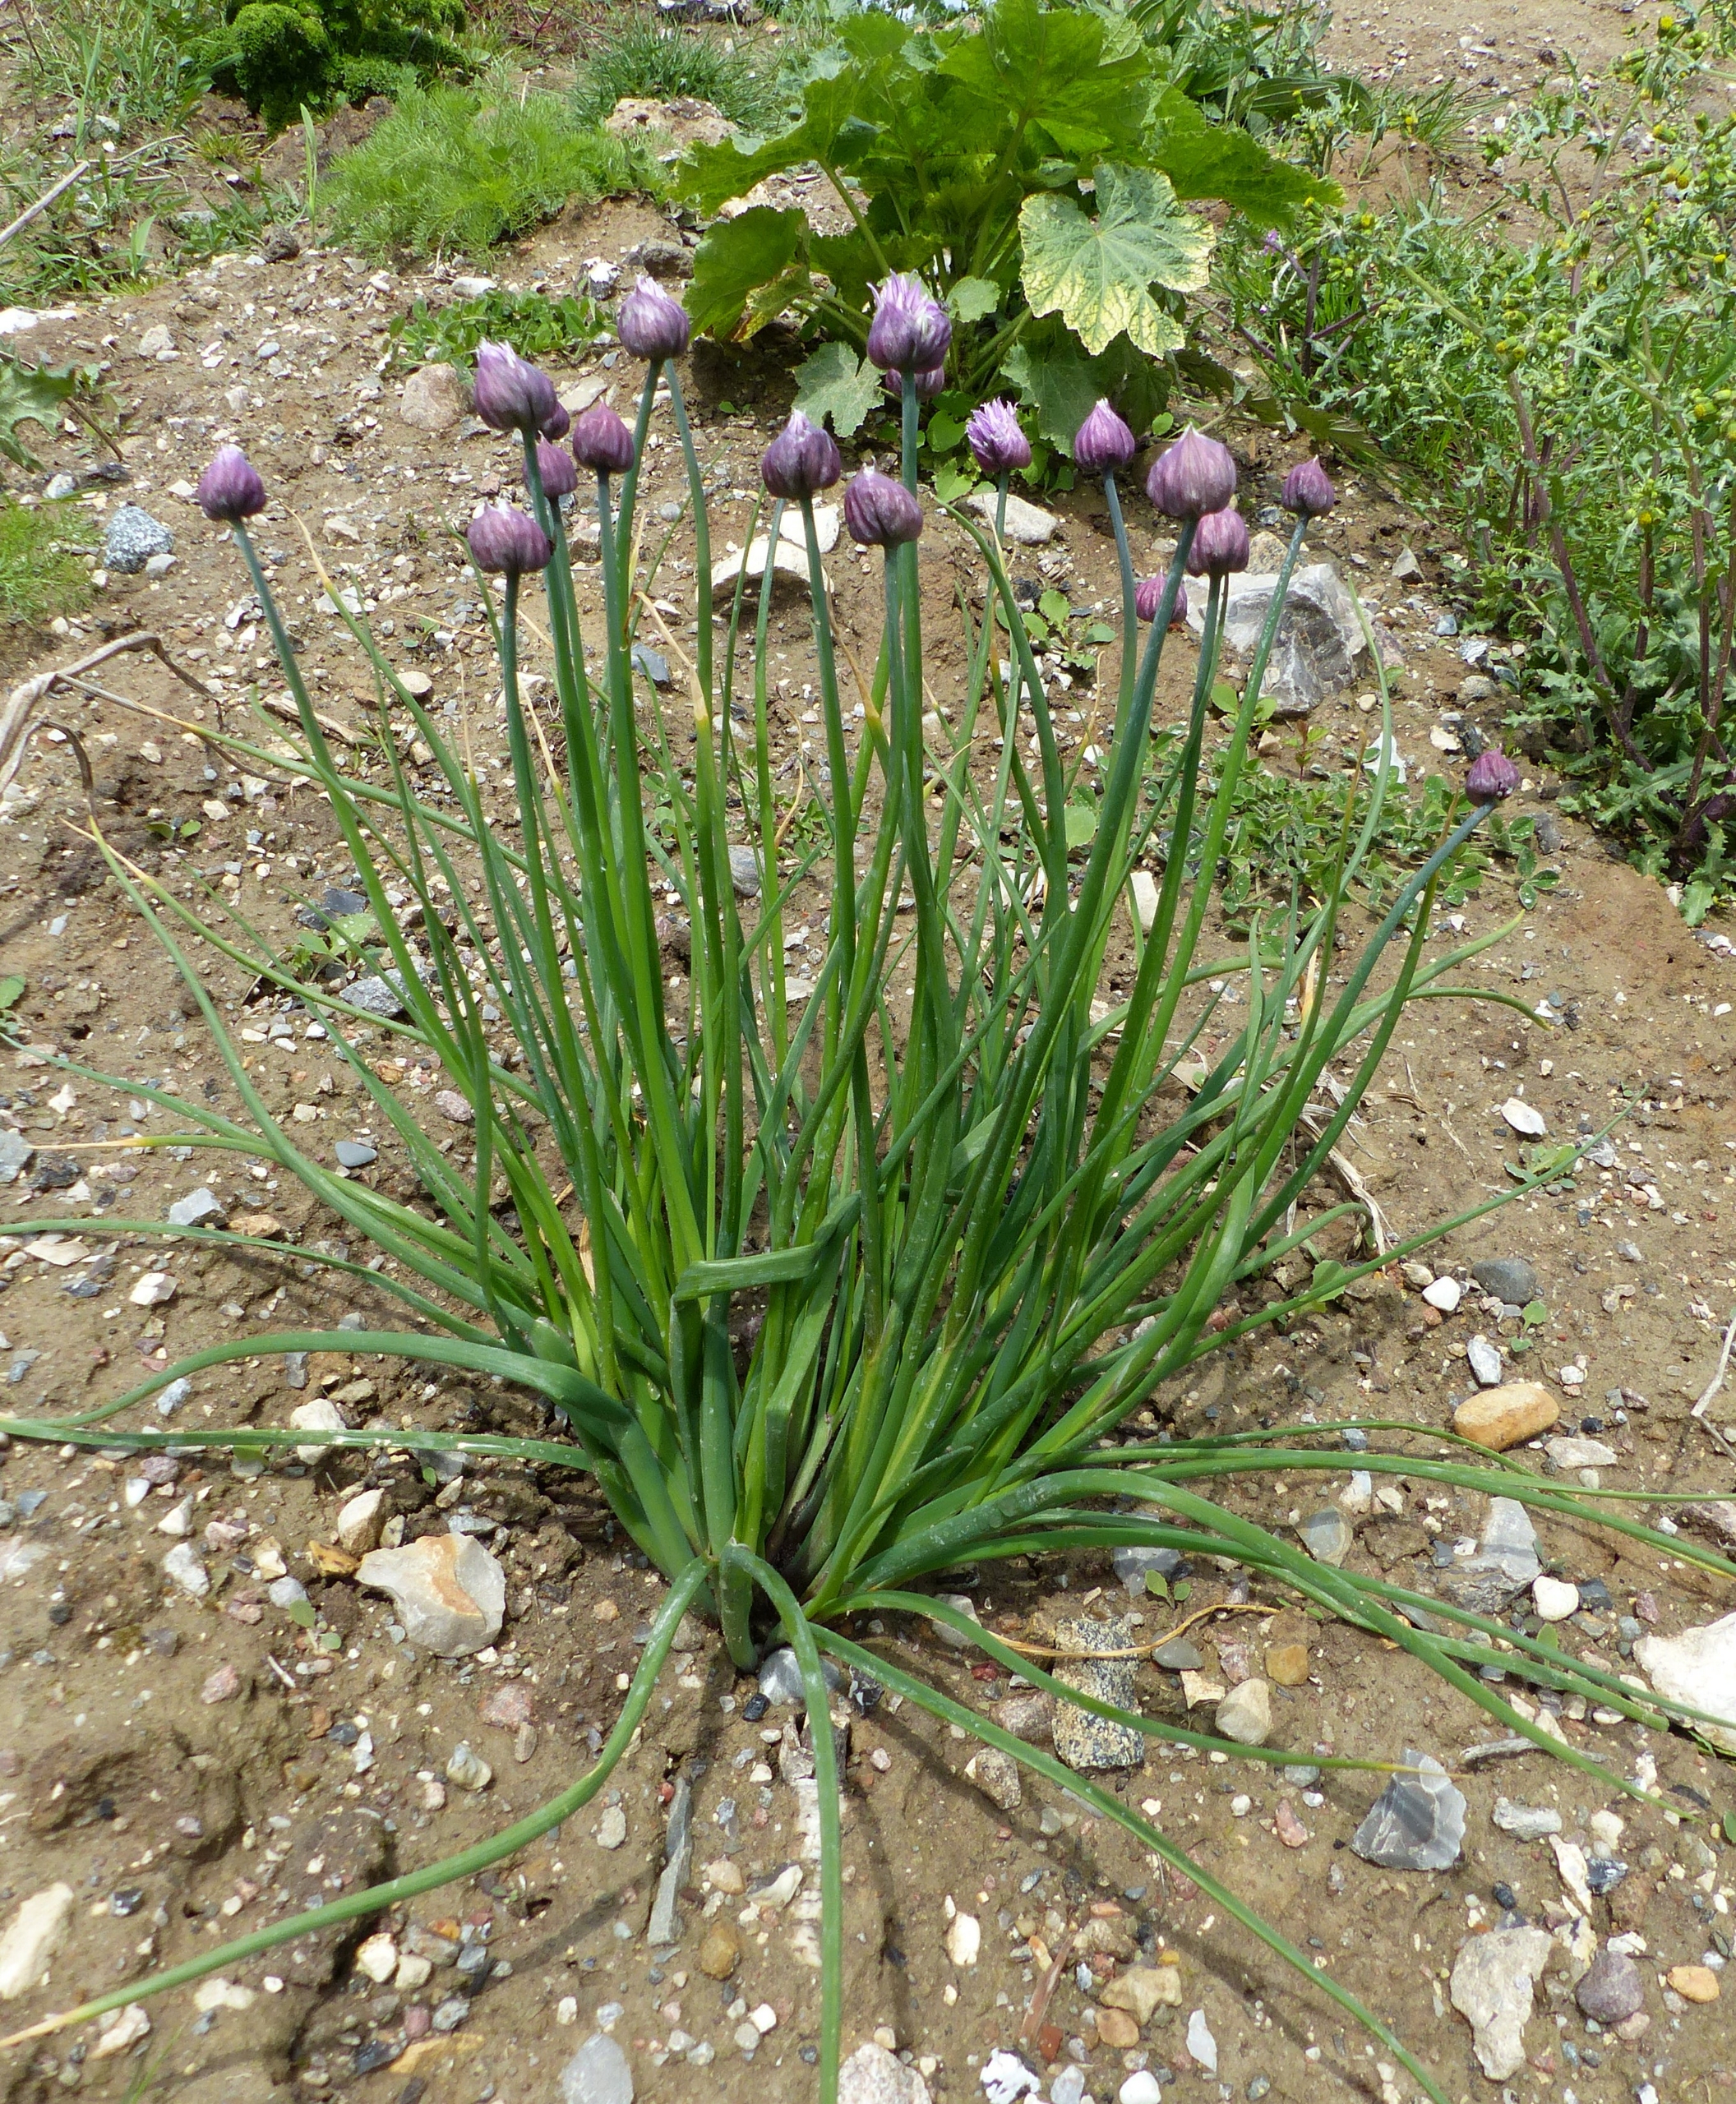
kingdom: Plantae
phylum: Tracheophyta
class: Liliopsida
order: Asparagales
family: Amaryllidaceae
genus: Allium
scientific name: Allium schoenoprasum
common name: Pur-løg
